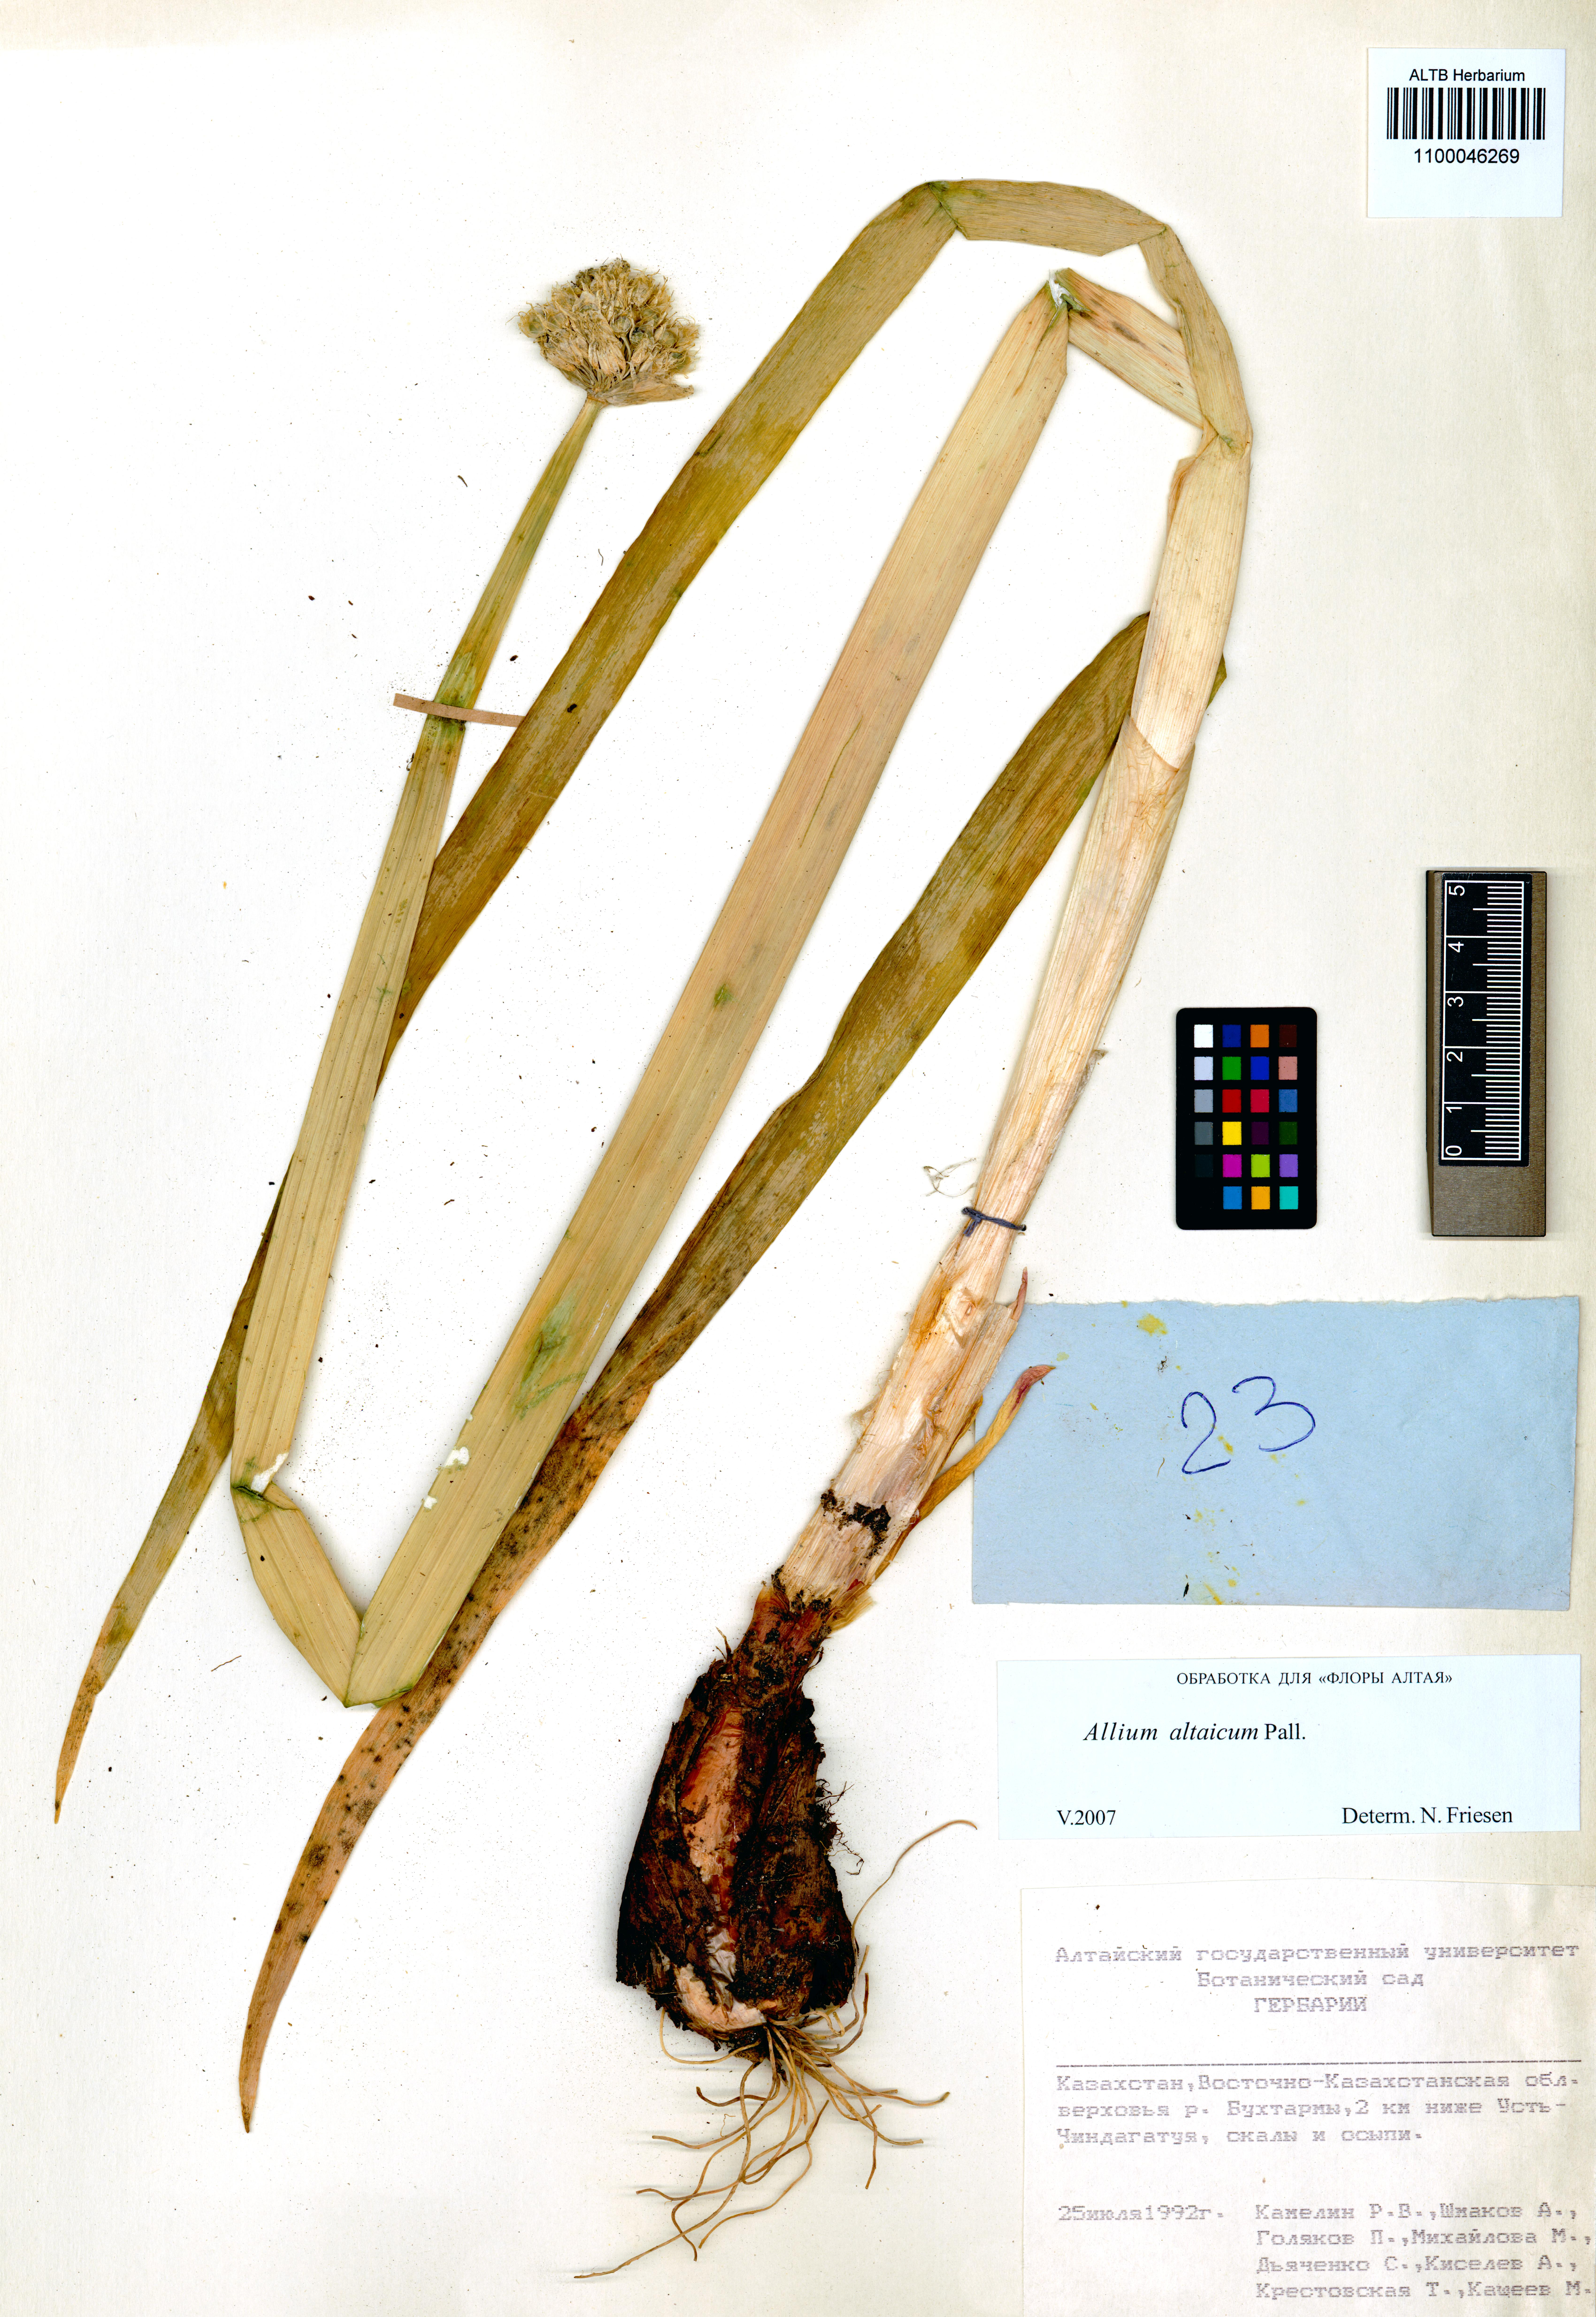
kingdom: Plantae
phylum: Tracheophyta
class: Liliopsida
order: Asparagales
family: Amaryllidaceae
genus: Allium
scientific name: Allium altaicum
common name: Altai onion
